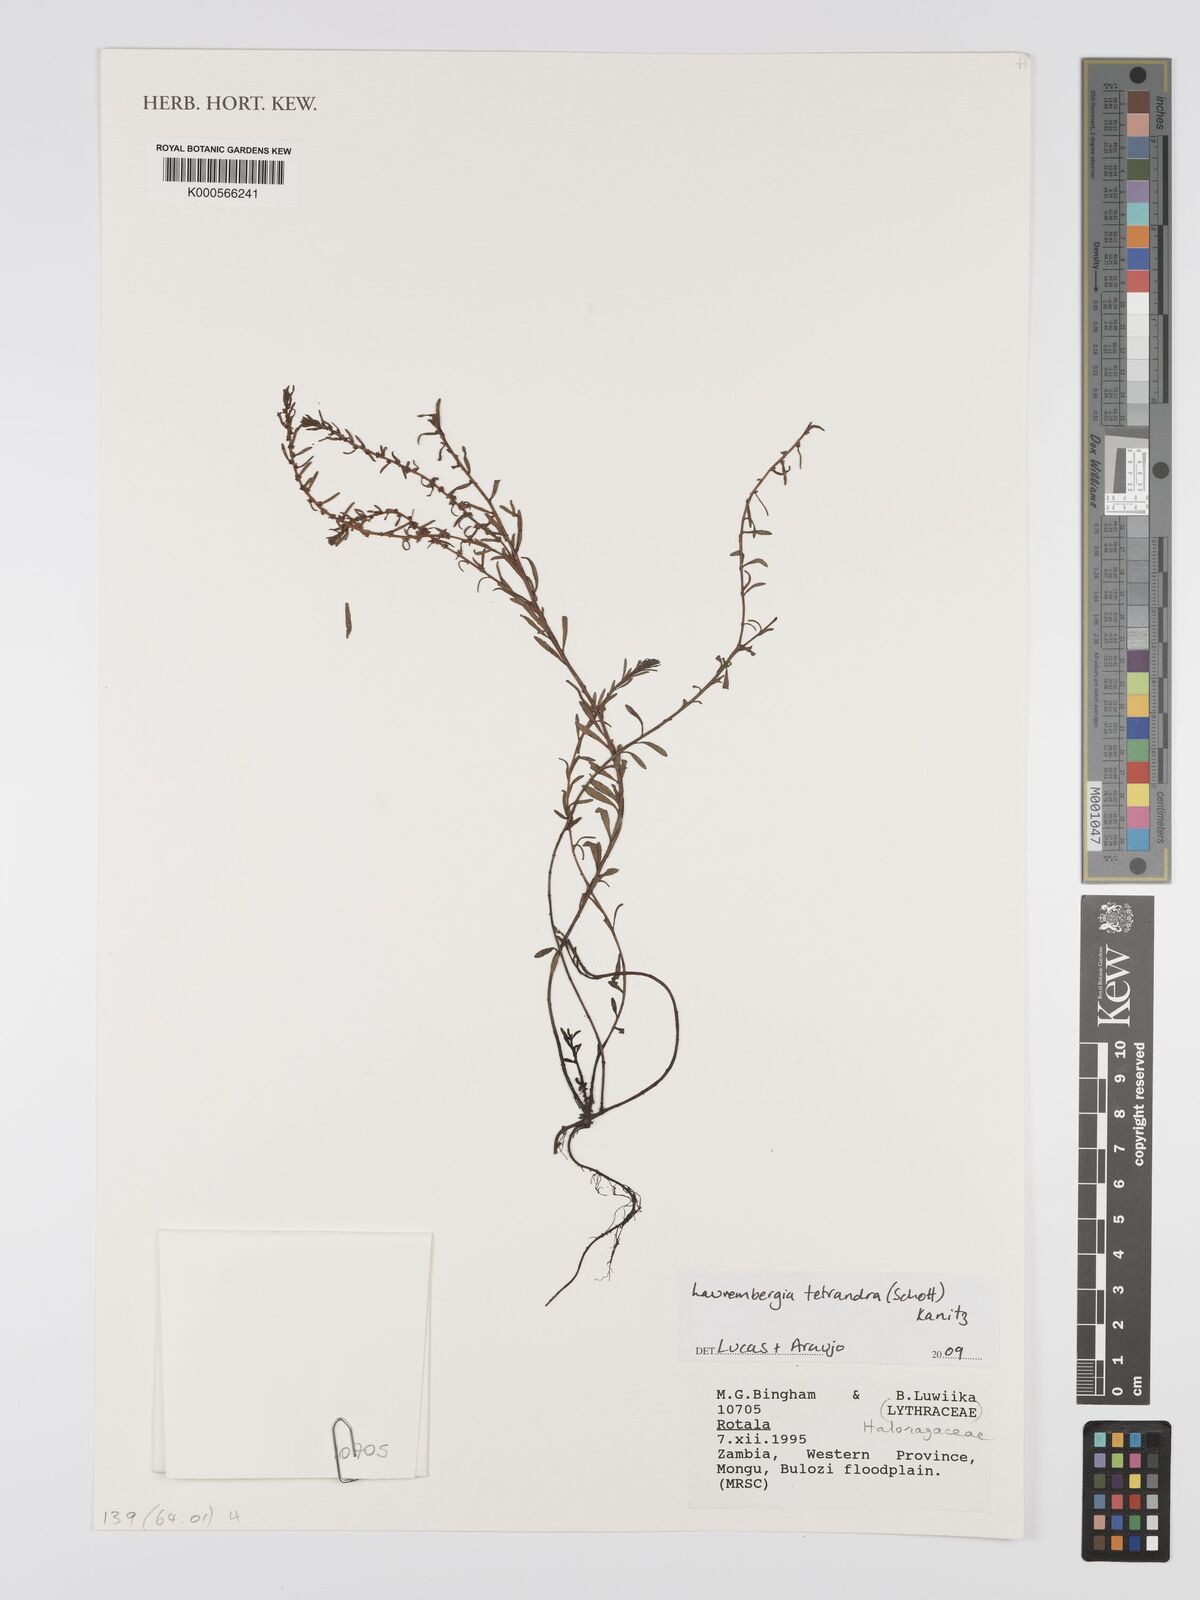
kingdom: Plantae
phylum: Tracheophyta
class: Magnoliopsida
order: Saxifragales
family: Haloragaceae
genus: Laurembergia
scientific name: Laurembergia
